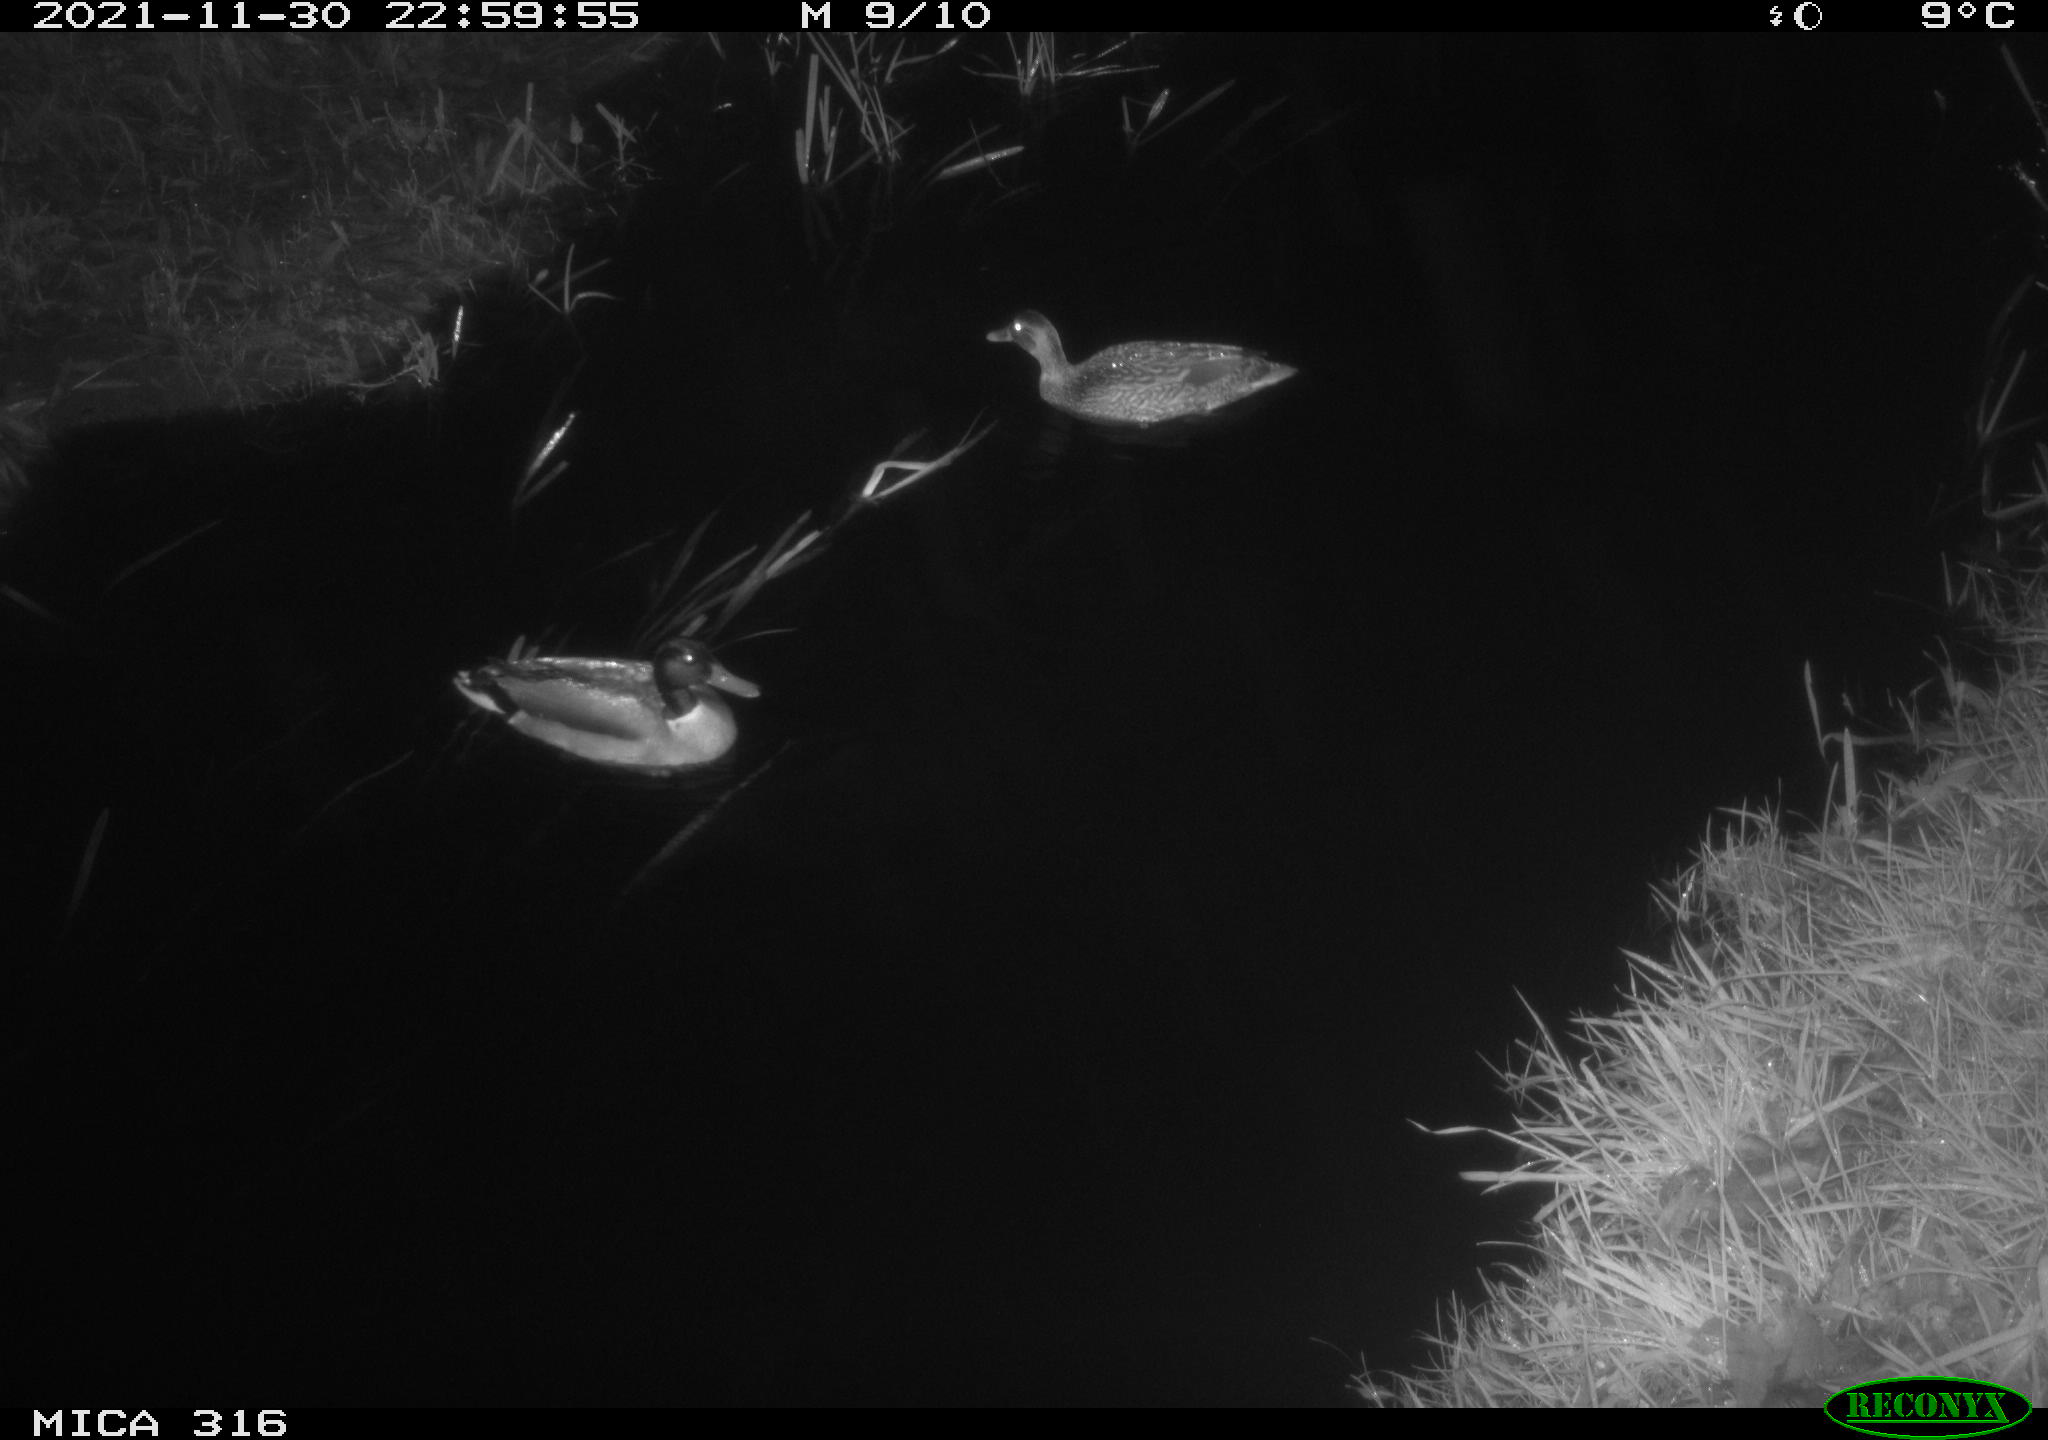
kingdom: Animalia
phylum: Chordata
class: Aves
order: Anseriformes
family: Anatidae
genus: Anas
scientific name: Anas platyrhynchos
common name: Mallard
